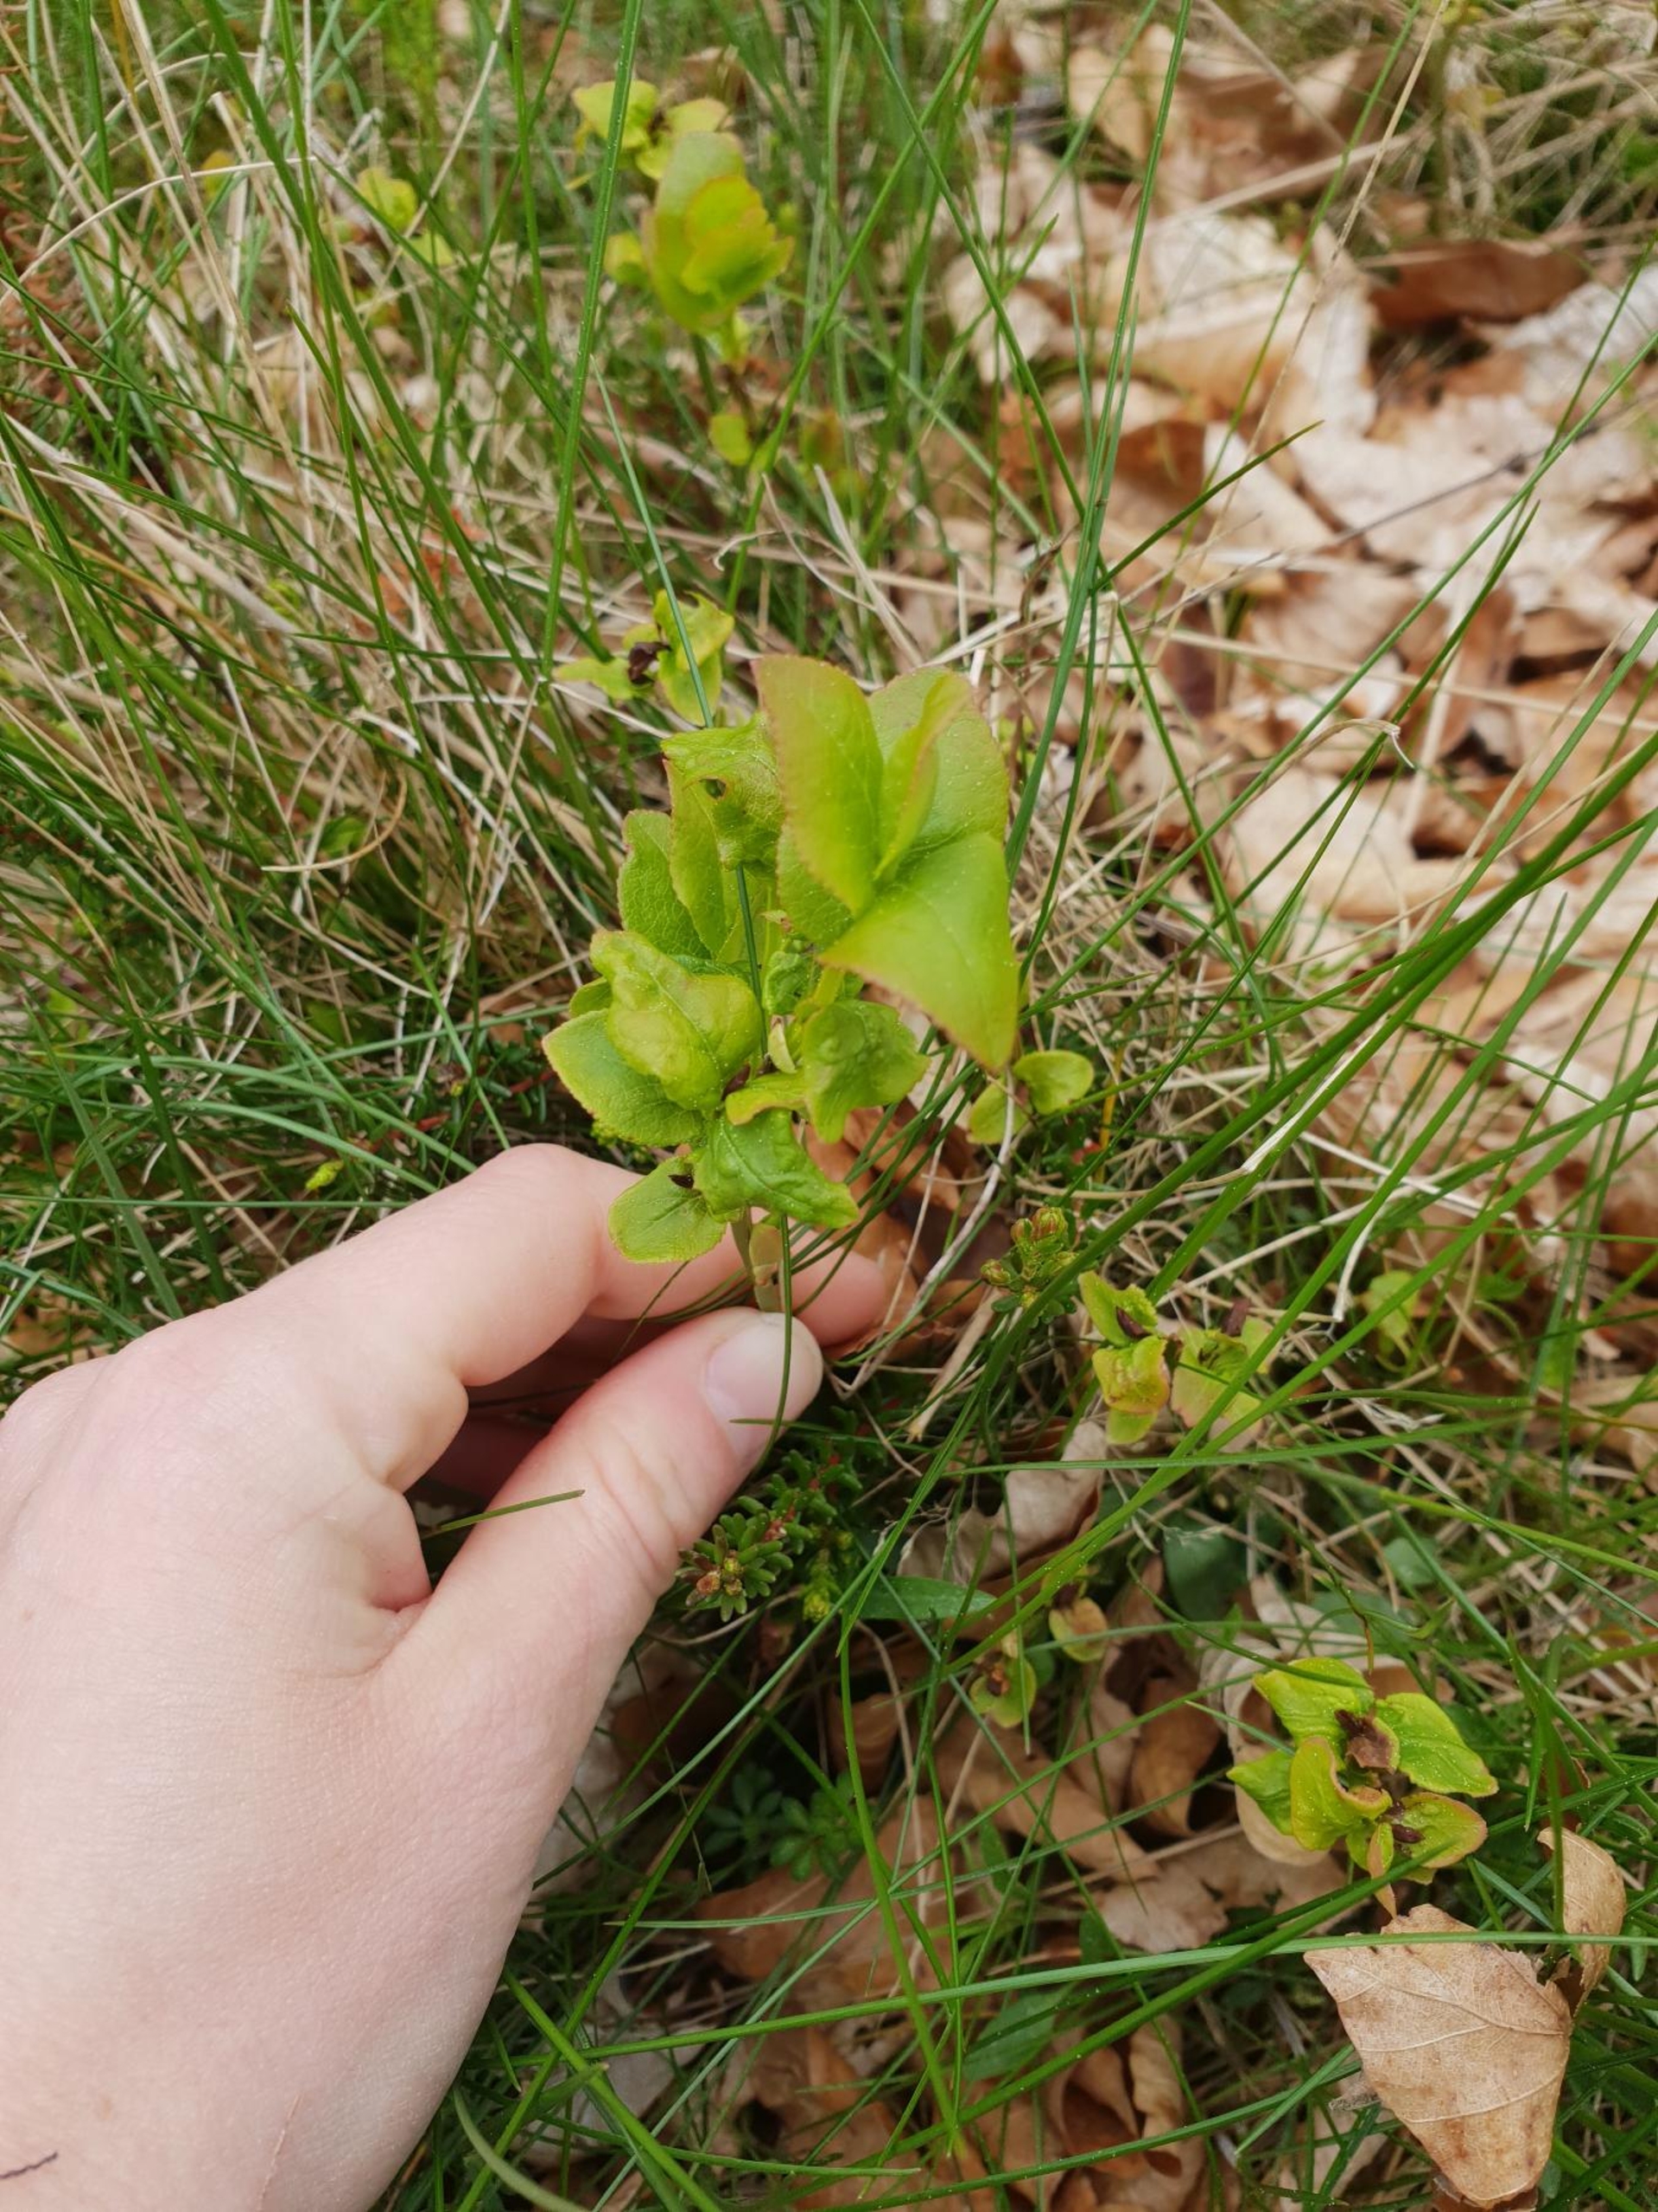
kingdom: Plantae
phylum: Tracheophyta
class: Magnoliopsida
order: Ericales
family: Ericaceae
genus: Vaccinium
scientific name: Vaccinium myrtillus
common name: Blåbær
